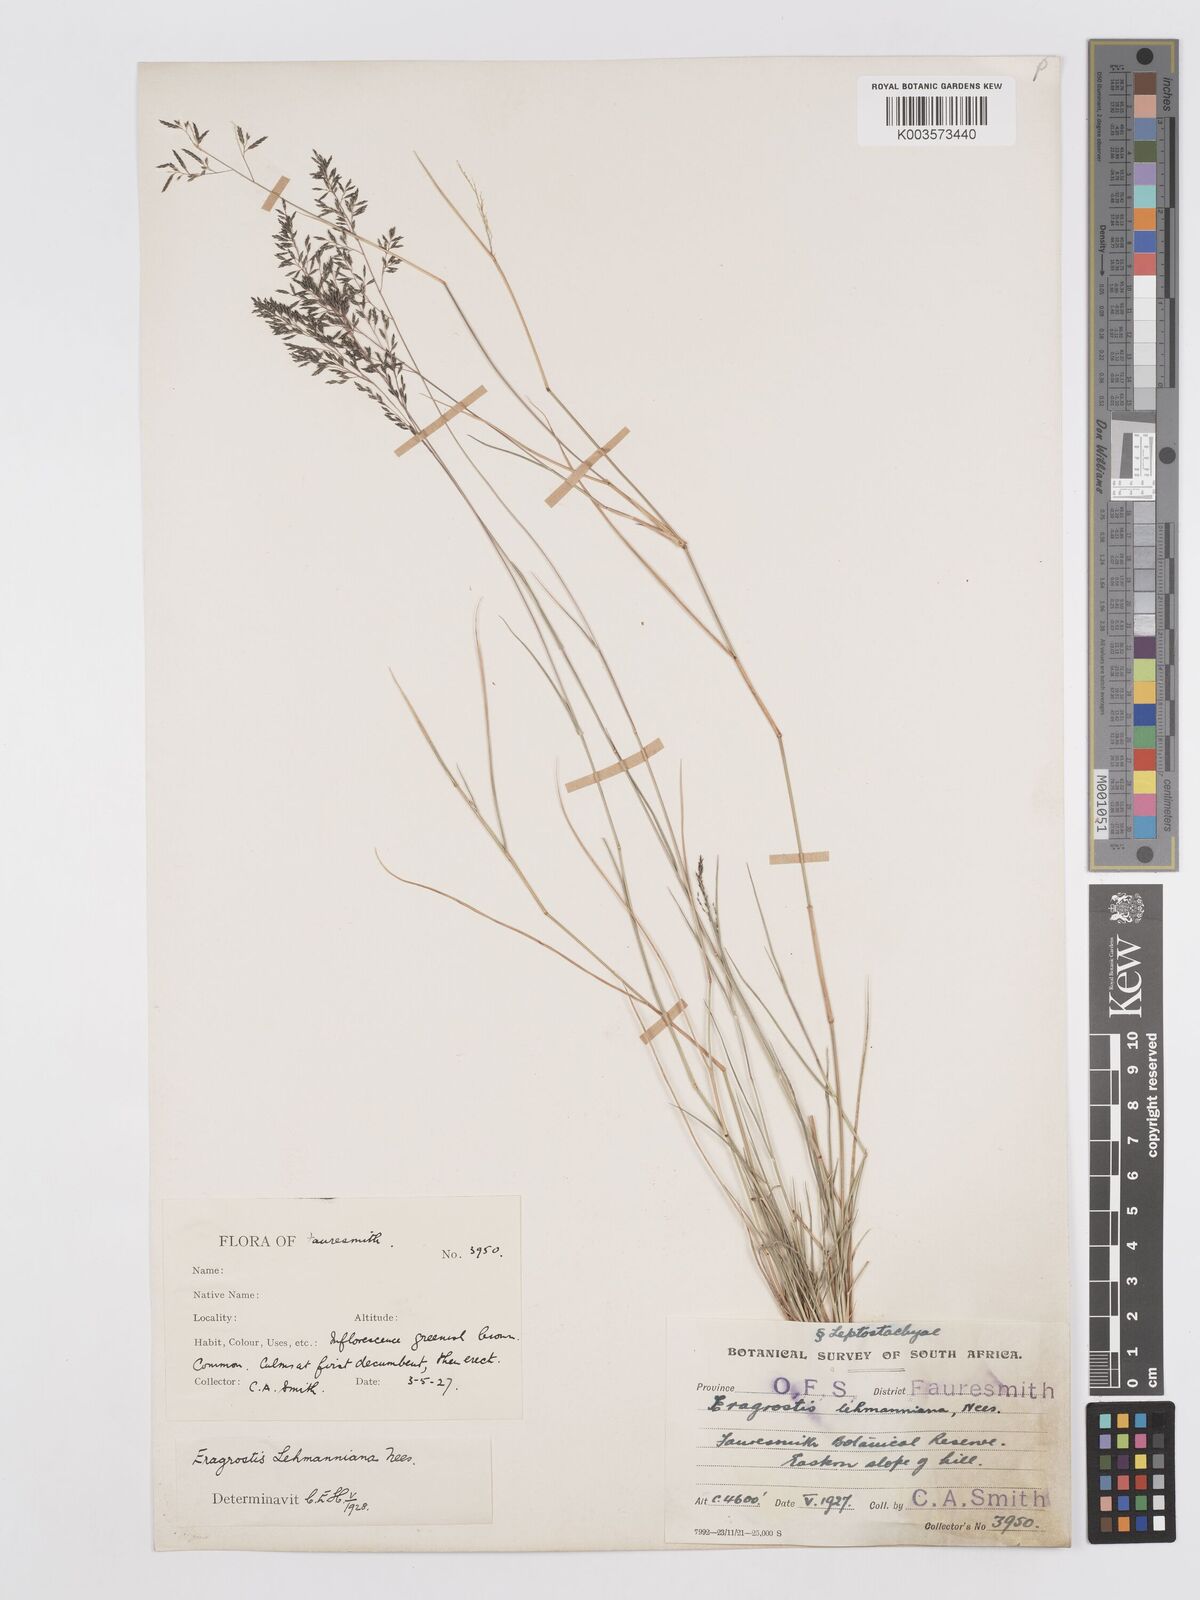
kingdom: Plantae
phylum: Tracheophyta
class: Liliopsida
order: Poales
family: Poaceae
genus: Eragrostis
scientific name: Eragrostis lehmanniana
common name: Lehmann lovegrass
